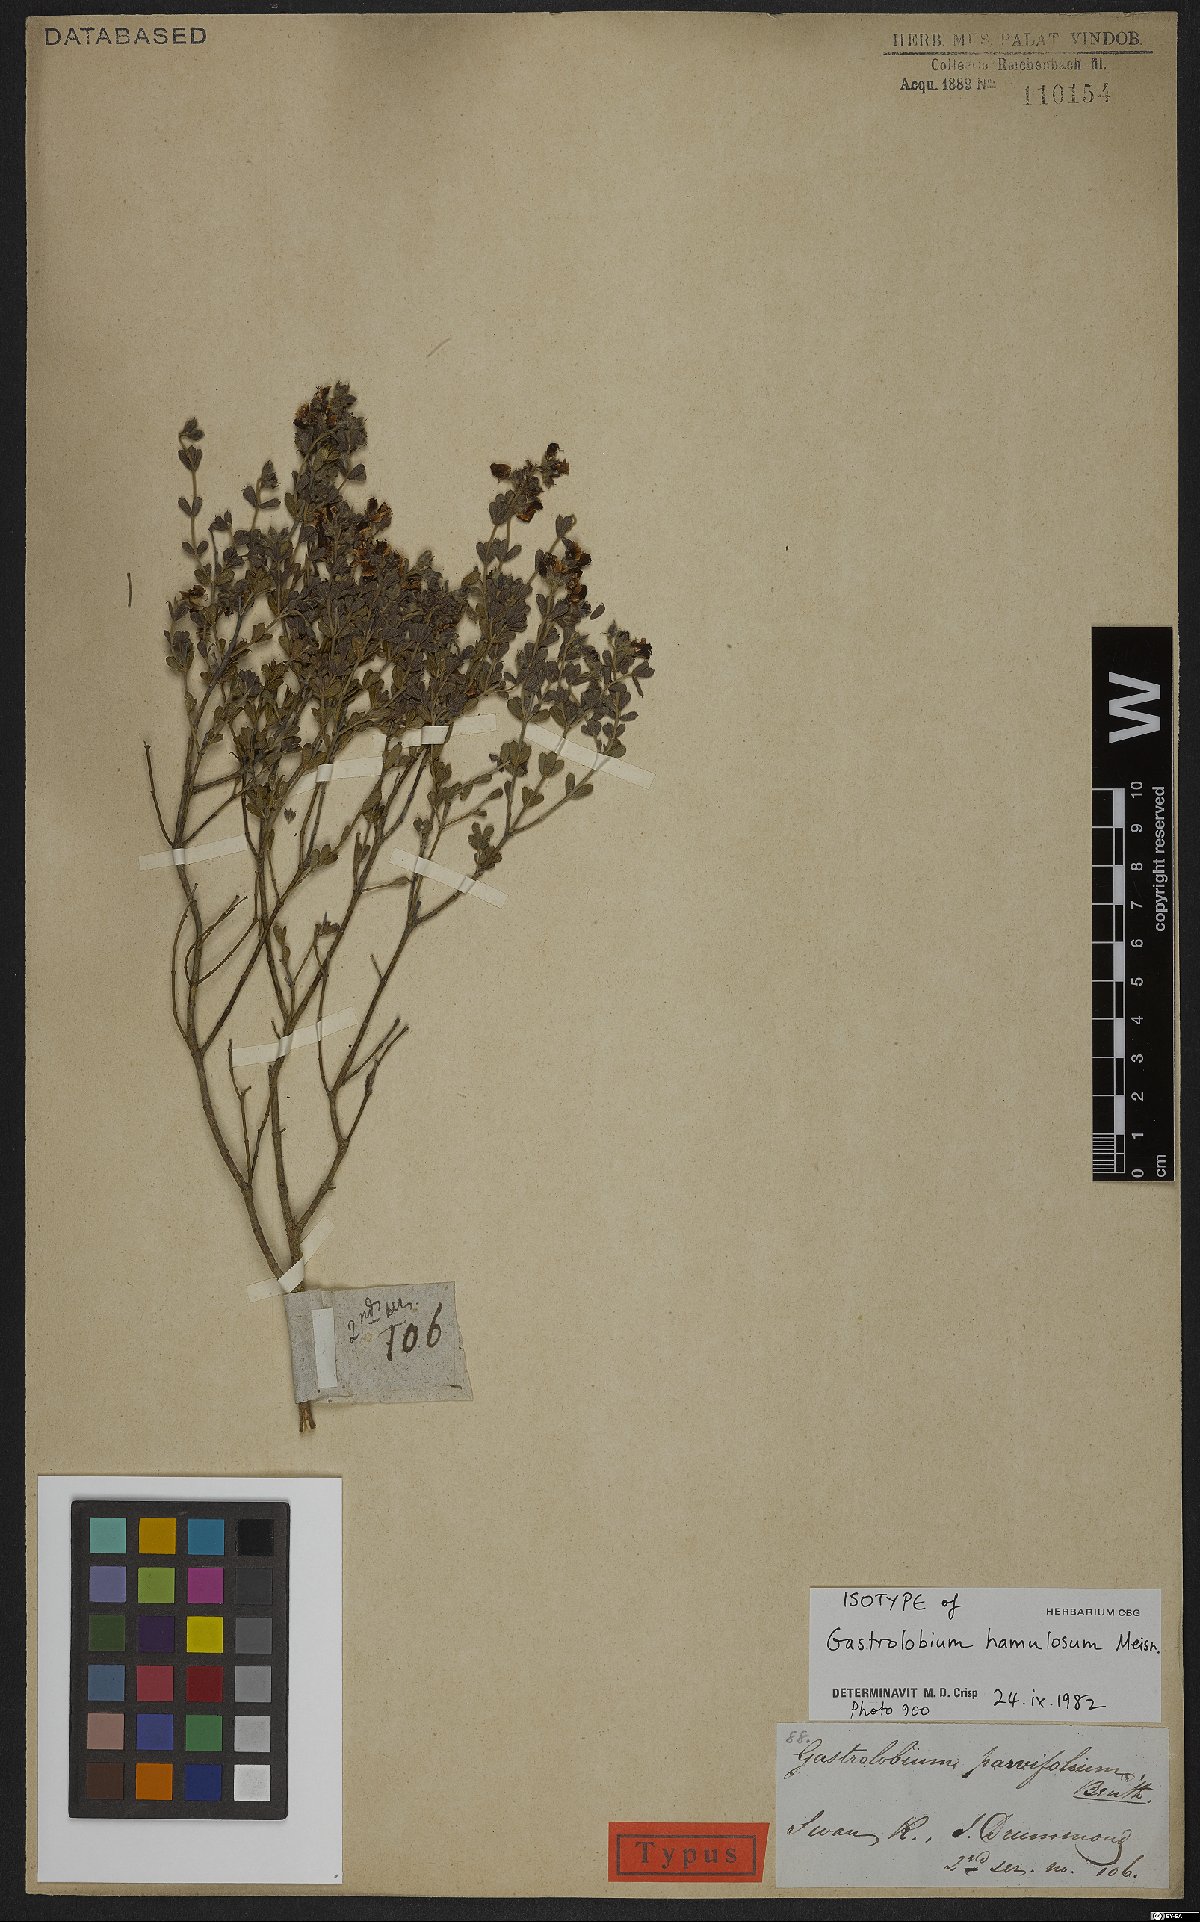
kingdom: Plantae
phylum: Tracheophyta
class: Magnoliopsida
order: Fabales
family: Fabaceae
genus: Gastrolobium
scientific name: Gastrolobium hamulosum
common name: Hook-point poisonbush
